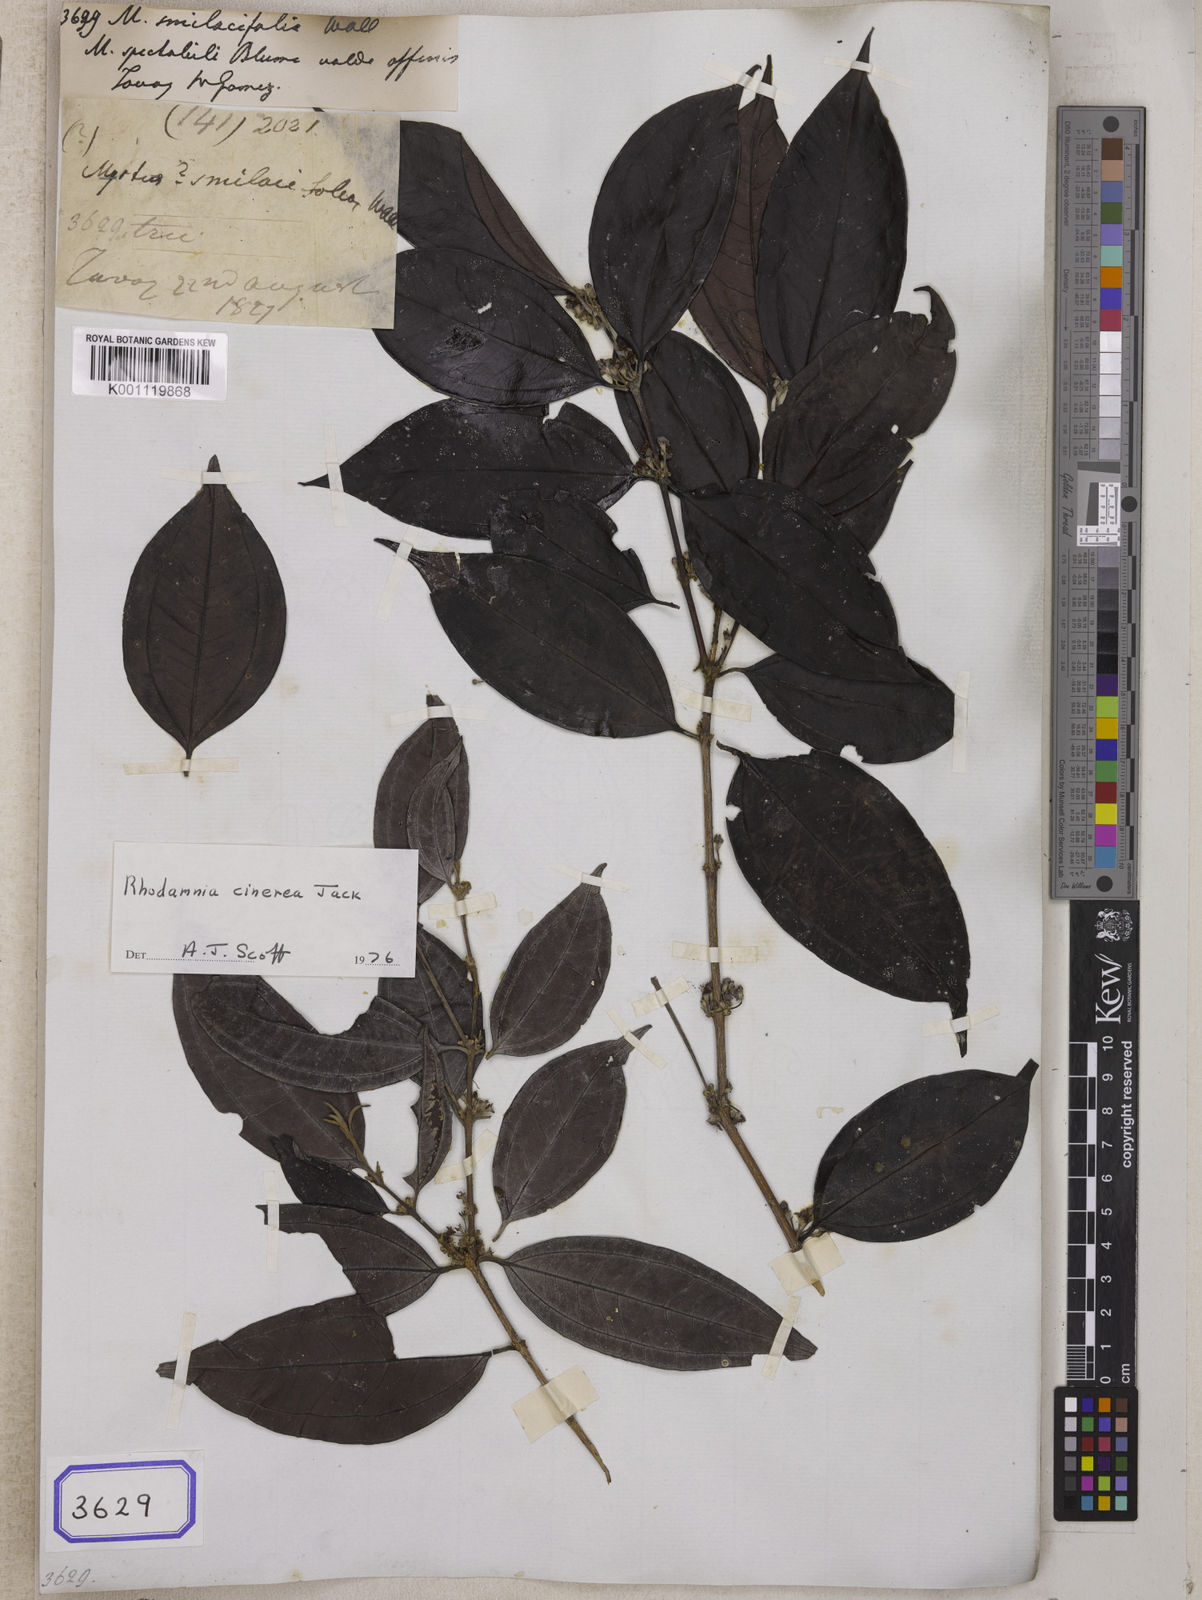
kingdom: Plantae
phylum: Tracheophyta
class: Magnoliopsida
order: Myrtales
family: Myrtaceae
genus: Myrtus
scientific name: Myrtus
